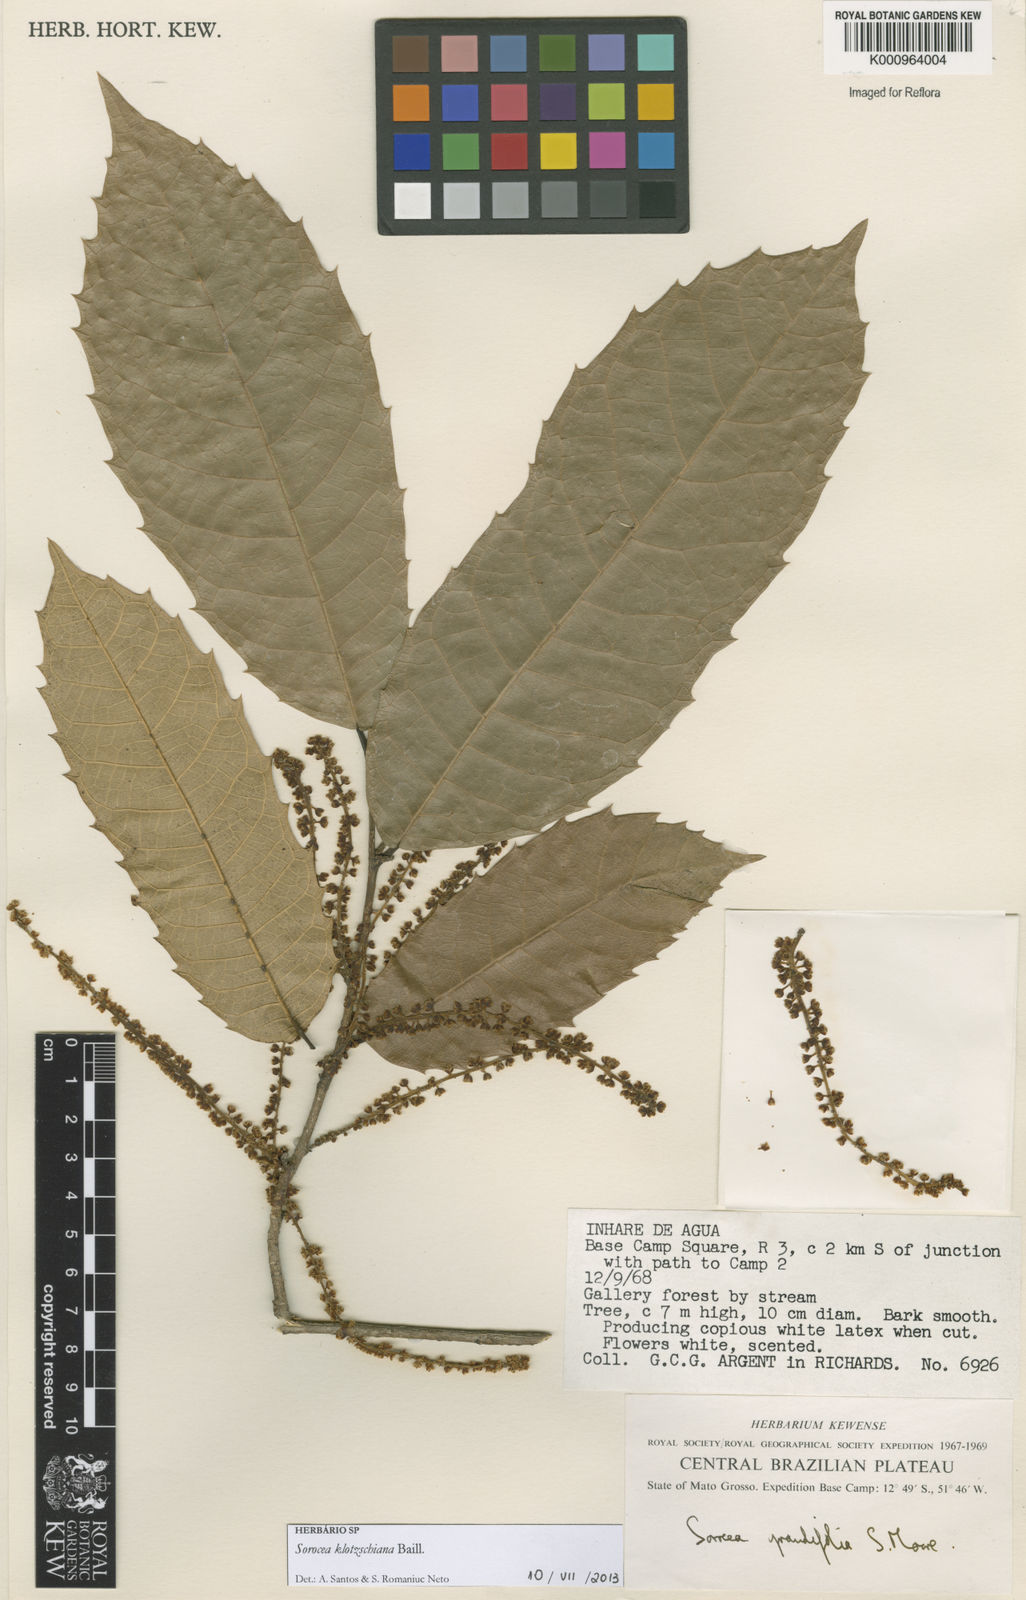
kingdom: Plantae
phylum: Tracheophyta
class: Magnoliopsida
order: Rosales
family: Moraceae
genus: Sorocea
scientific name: Sorocea guilleminiana
